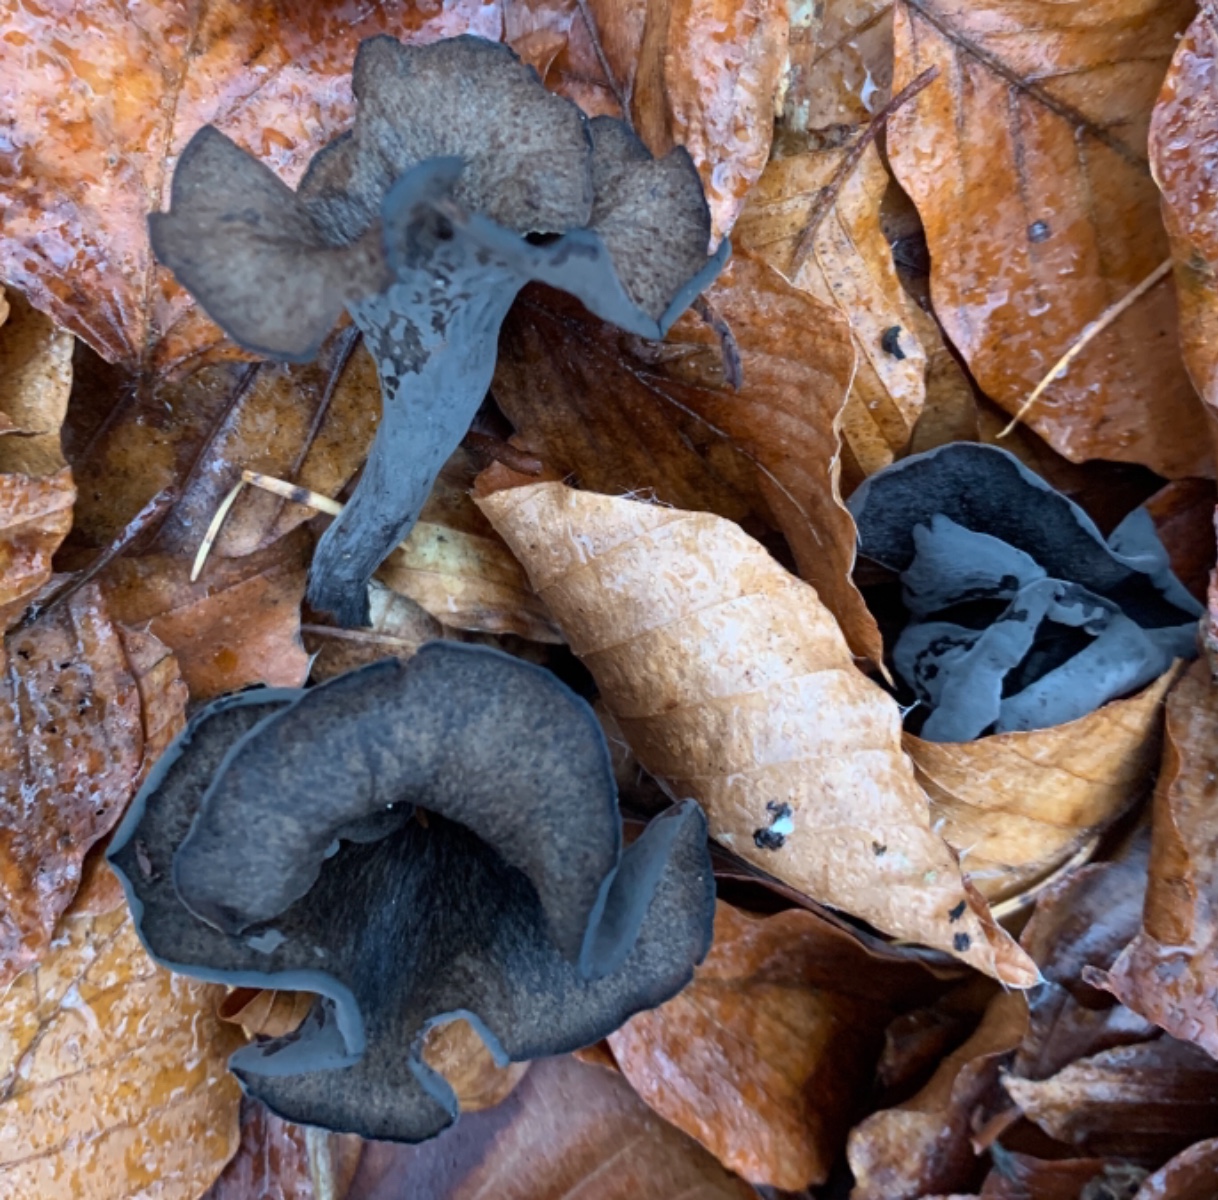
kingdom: Fungi
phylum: Basidiomycota
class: Agaricomycetes
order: Cantharellales
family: Hydnaceae
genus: Craterellus
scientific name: Craterellus cornucopioides
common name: trompetsvamp
